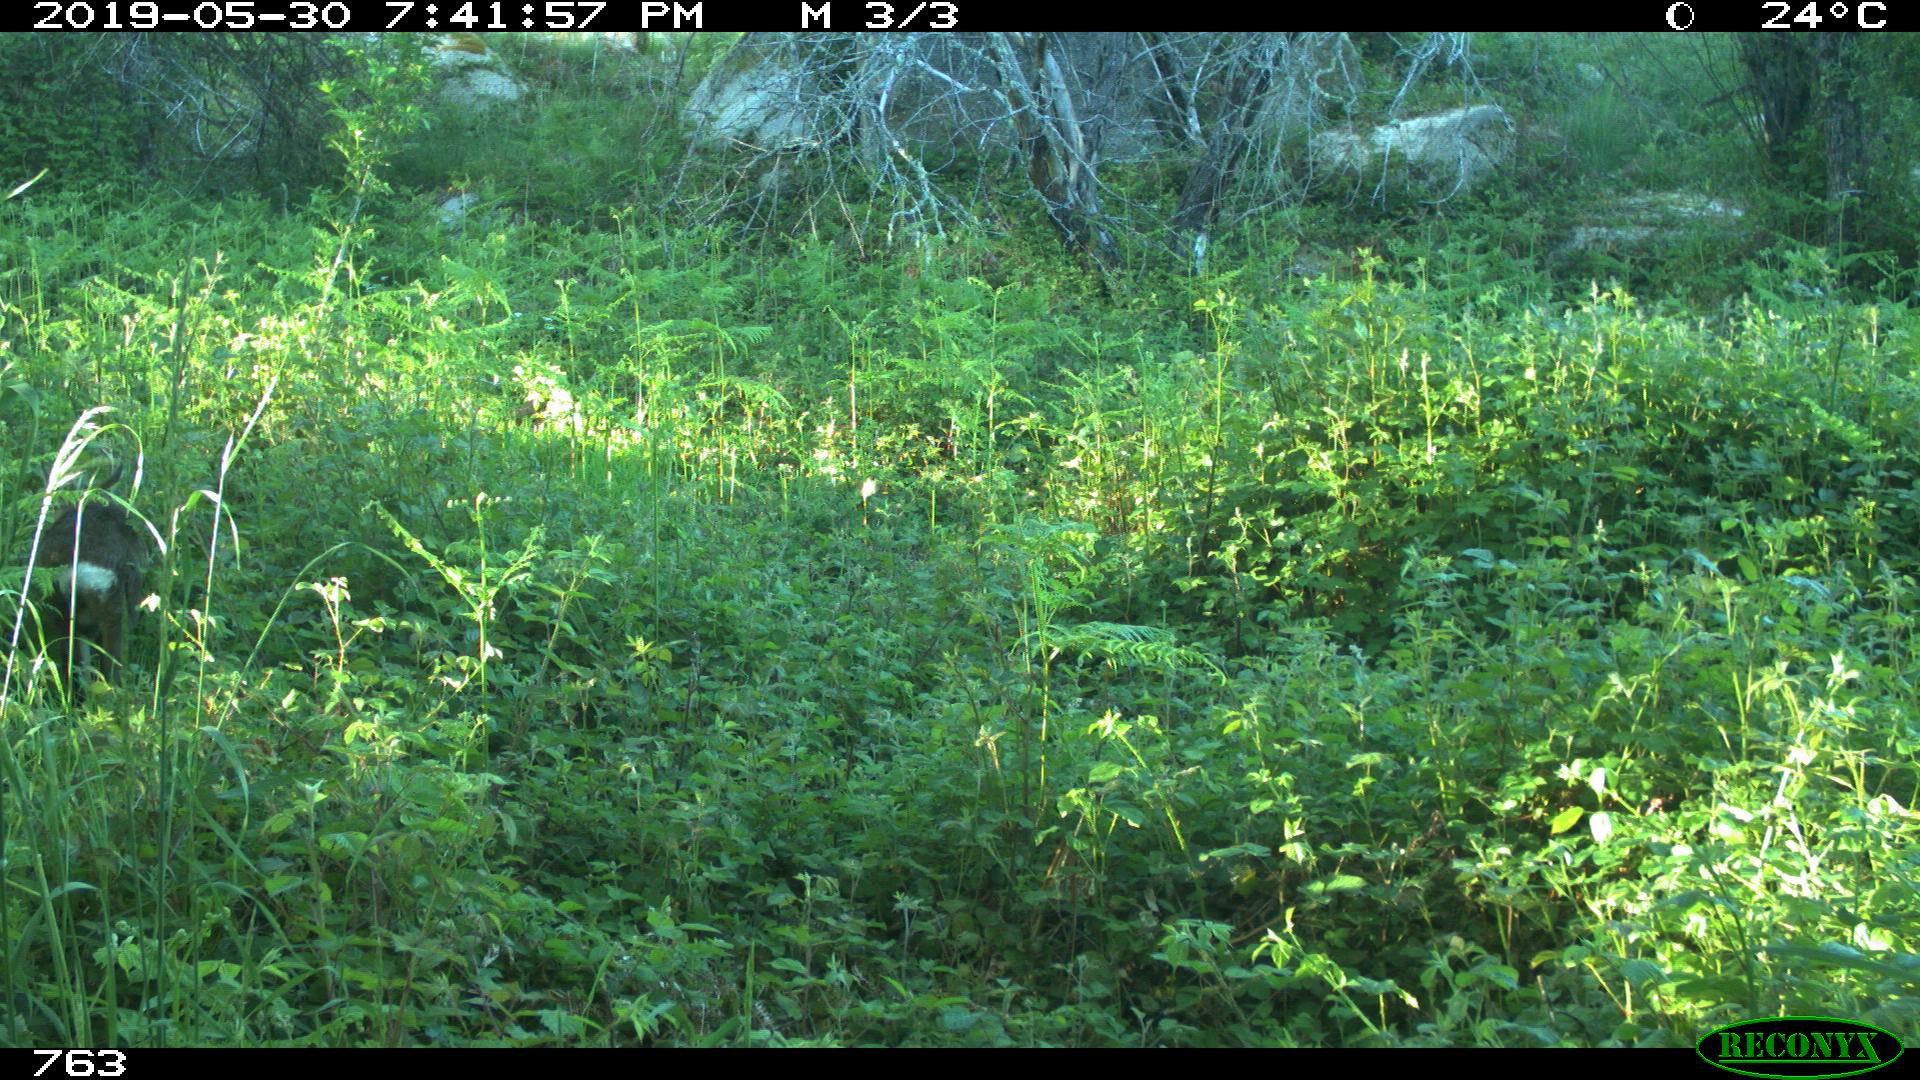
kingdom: Animalia
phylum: Chordata
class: Mammalia
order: Artiodactyla
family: Cervidae
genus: Capreolus
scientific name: Capreolus capreolus
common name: Western roe deer
